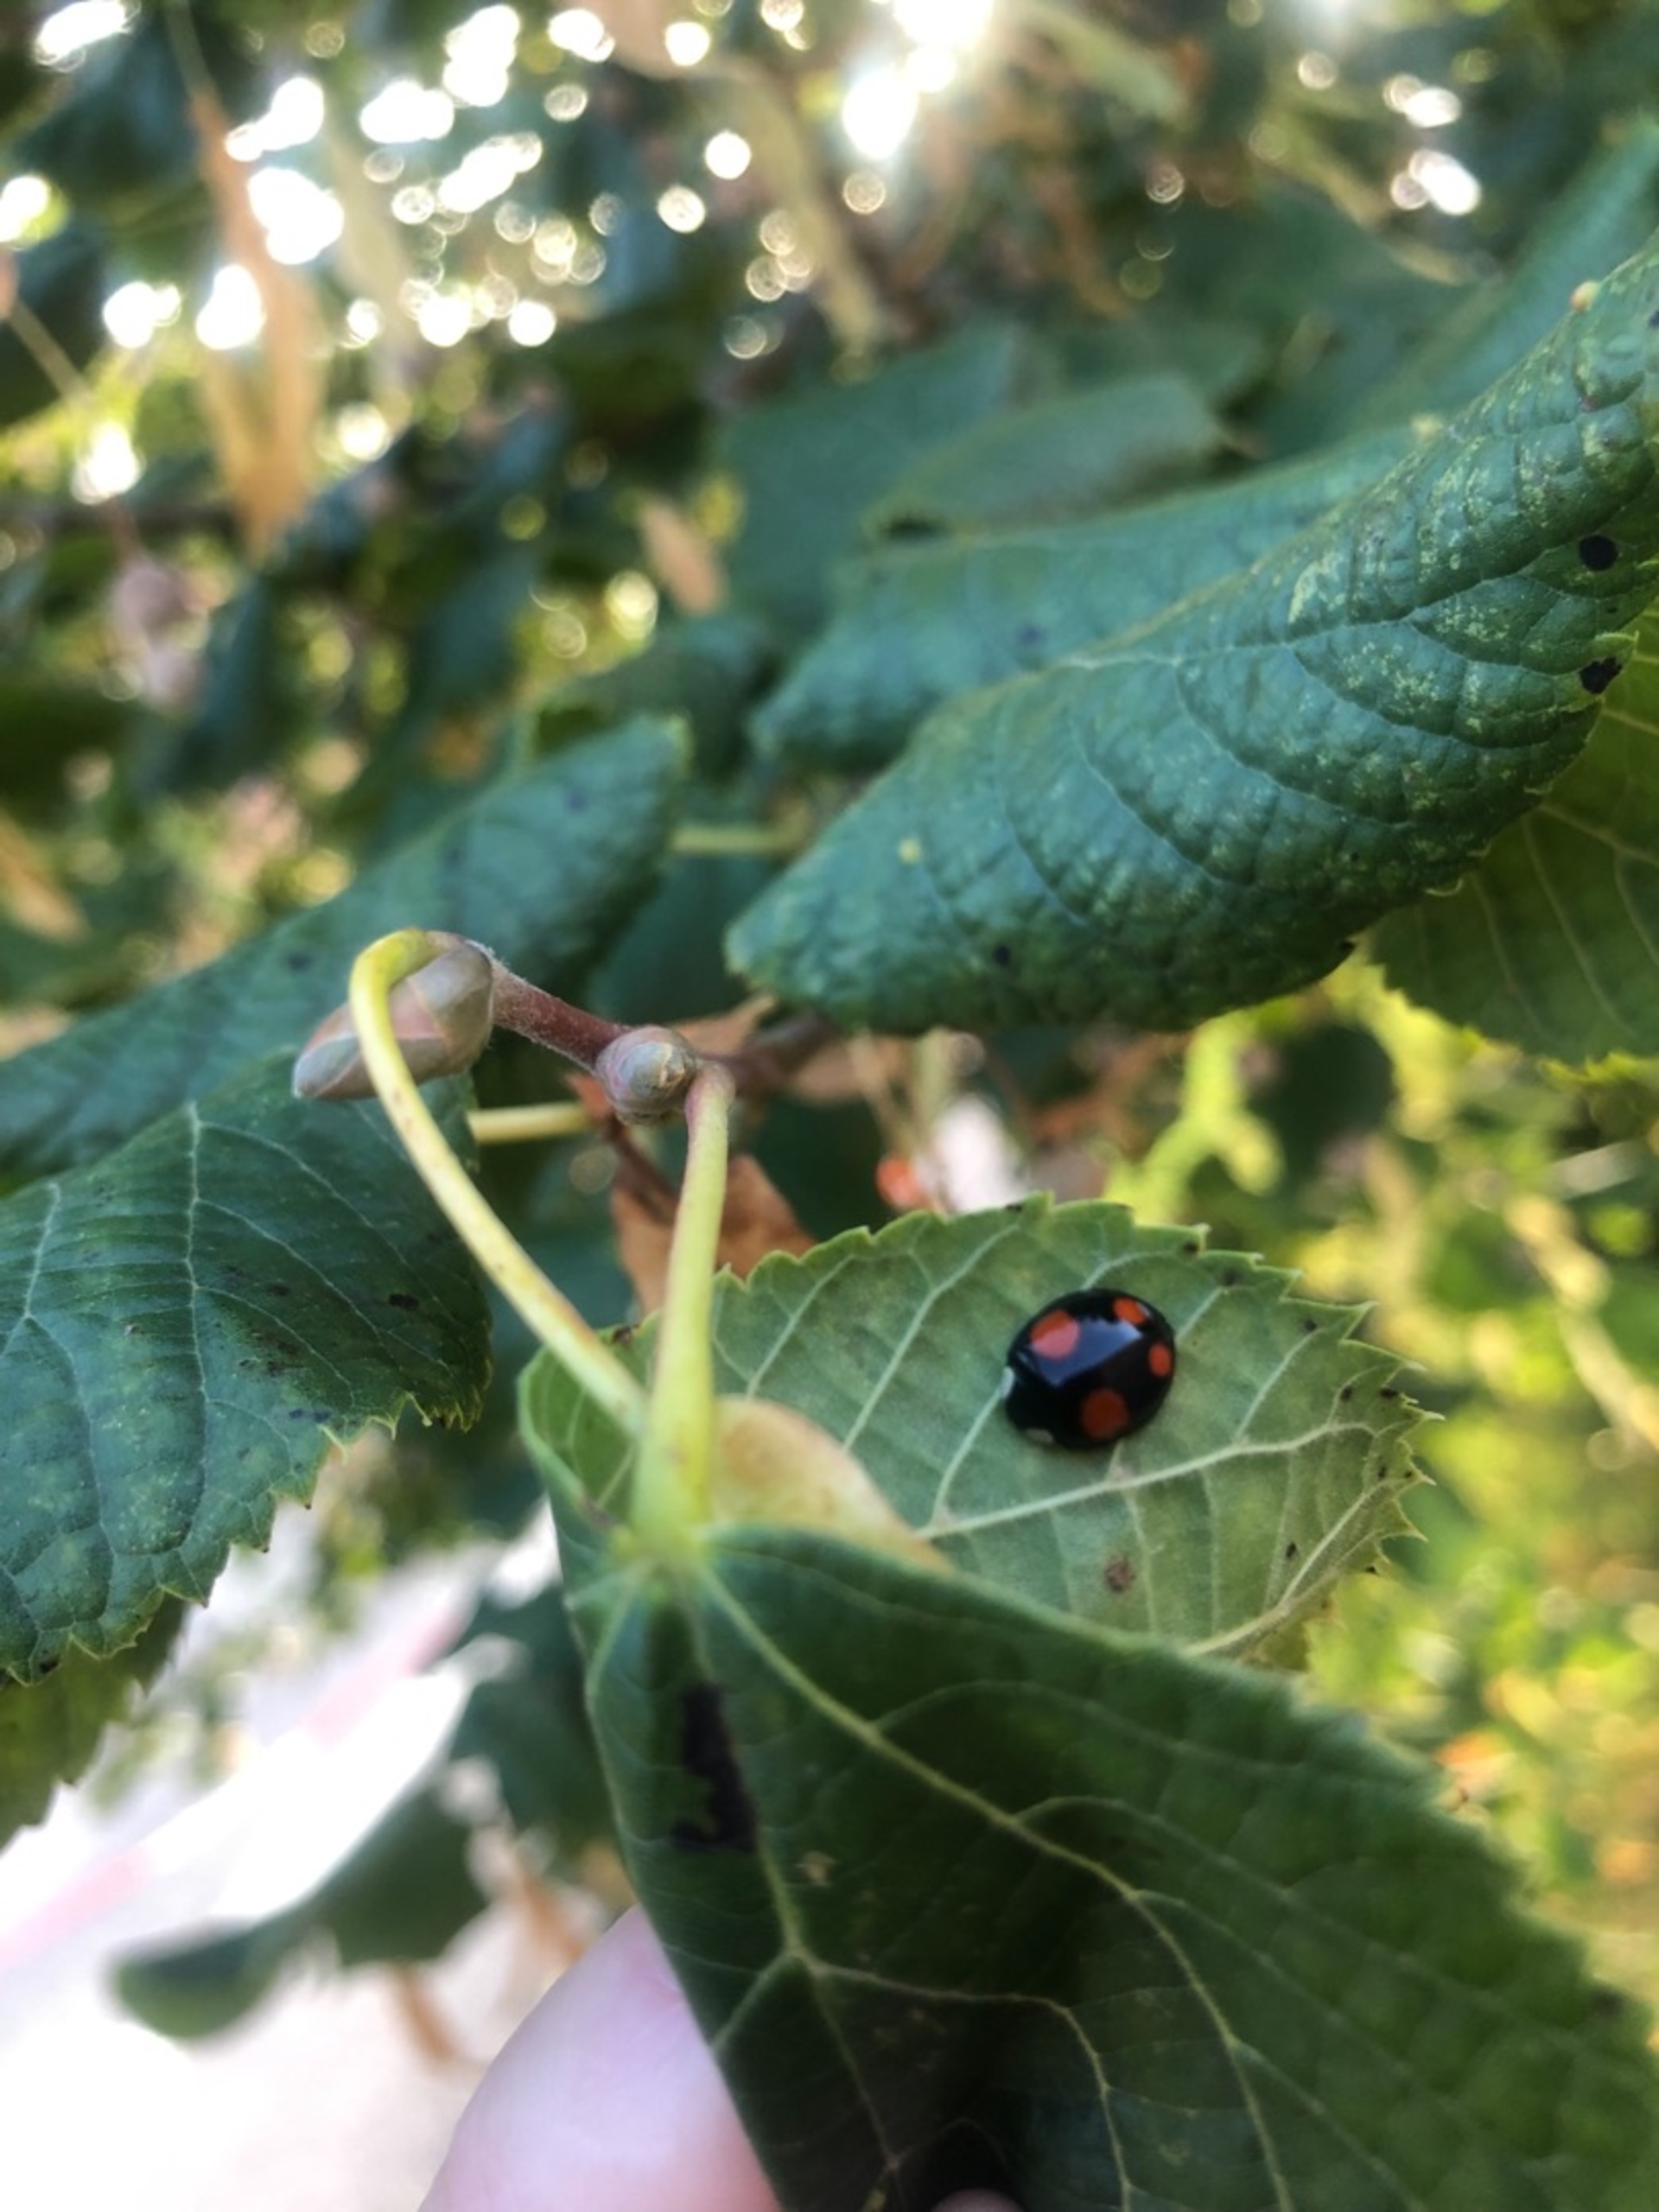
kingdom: Animalia
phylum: Arthropoda
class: Insecta
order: Coleoptera
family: Coccinellidae
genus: Harmonia
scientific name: Harmonia axyridis
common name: Harlekinmariehøne
